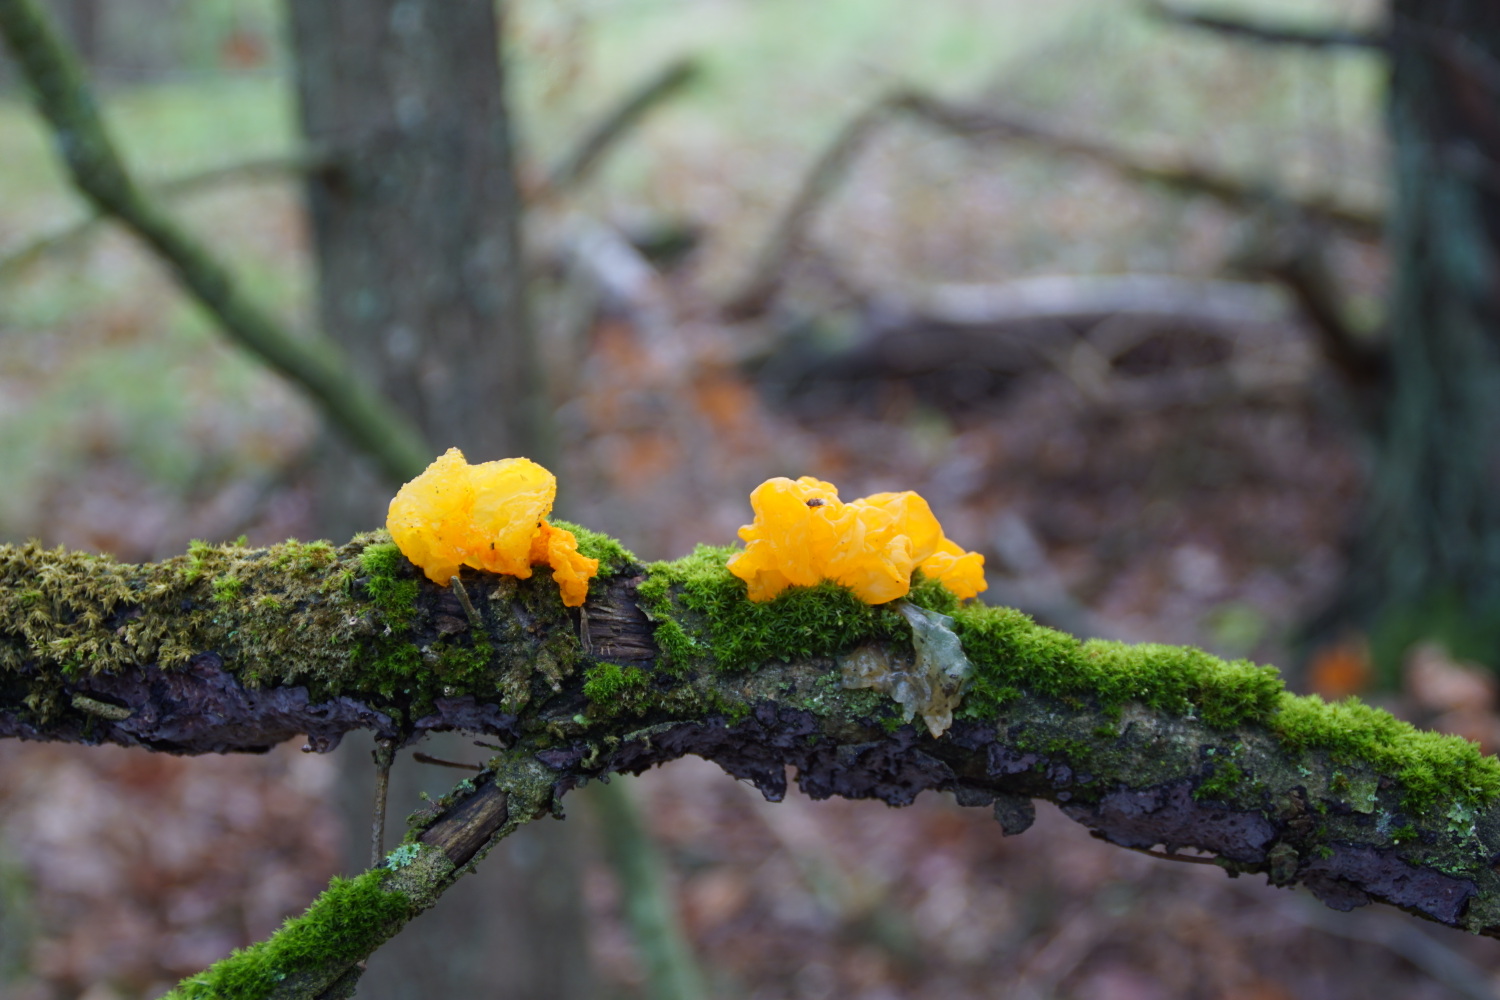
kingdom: Fungi
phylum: Basidiomycota
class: Tremellomycetes
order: Tremellales
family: Tremellaceae
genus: Tremella
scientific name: Tremella mesenterica
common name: gul bævresvamp
